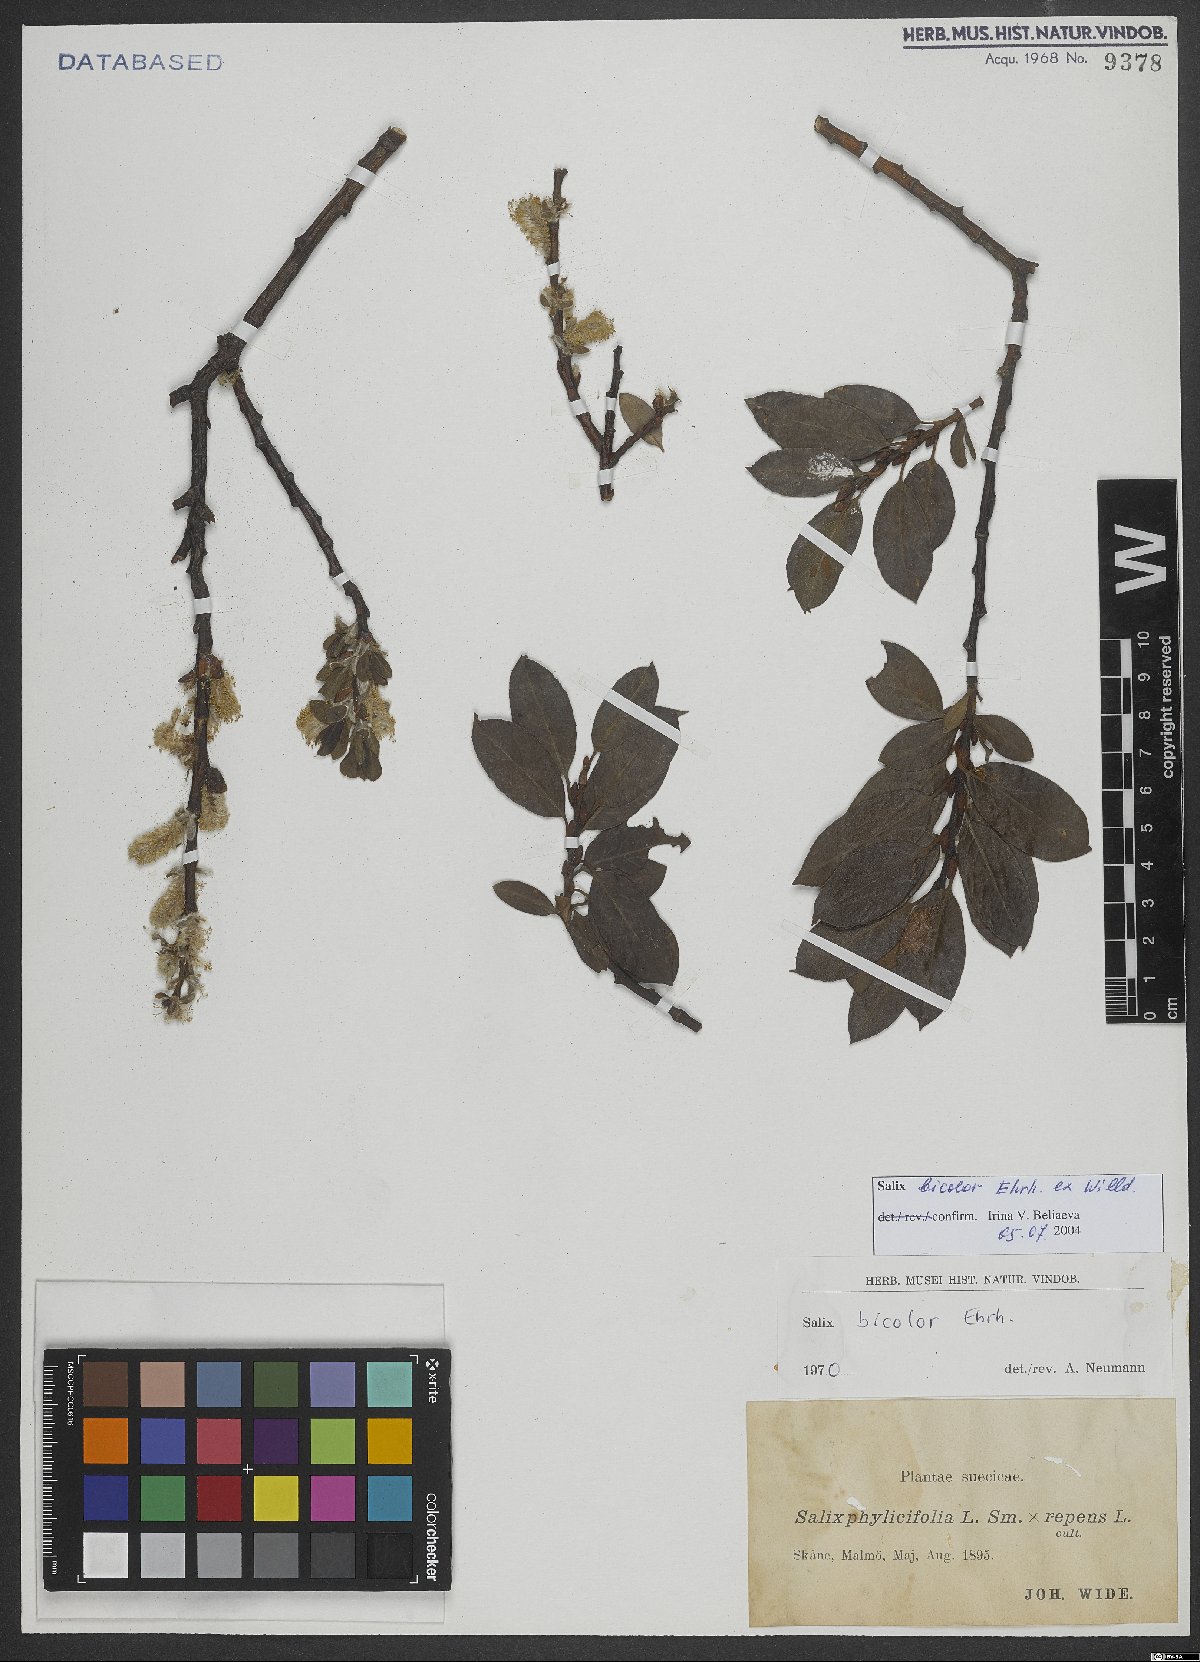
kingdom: Plantae
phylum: Tracheophyta
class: Magnoliopsida
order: Malpighiales
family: Salicaceae
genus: Salix
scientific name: Salix bicolor
